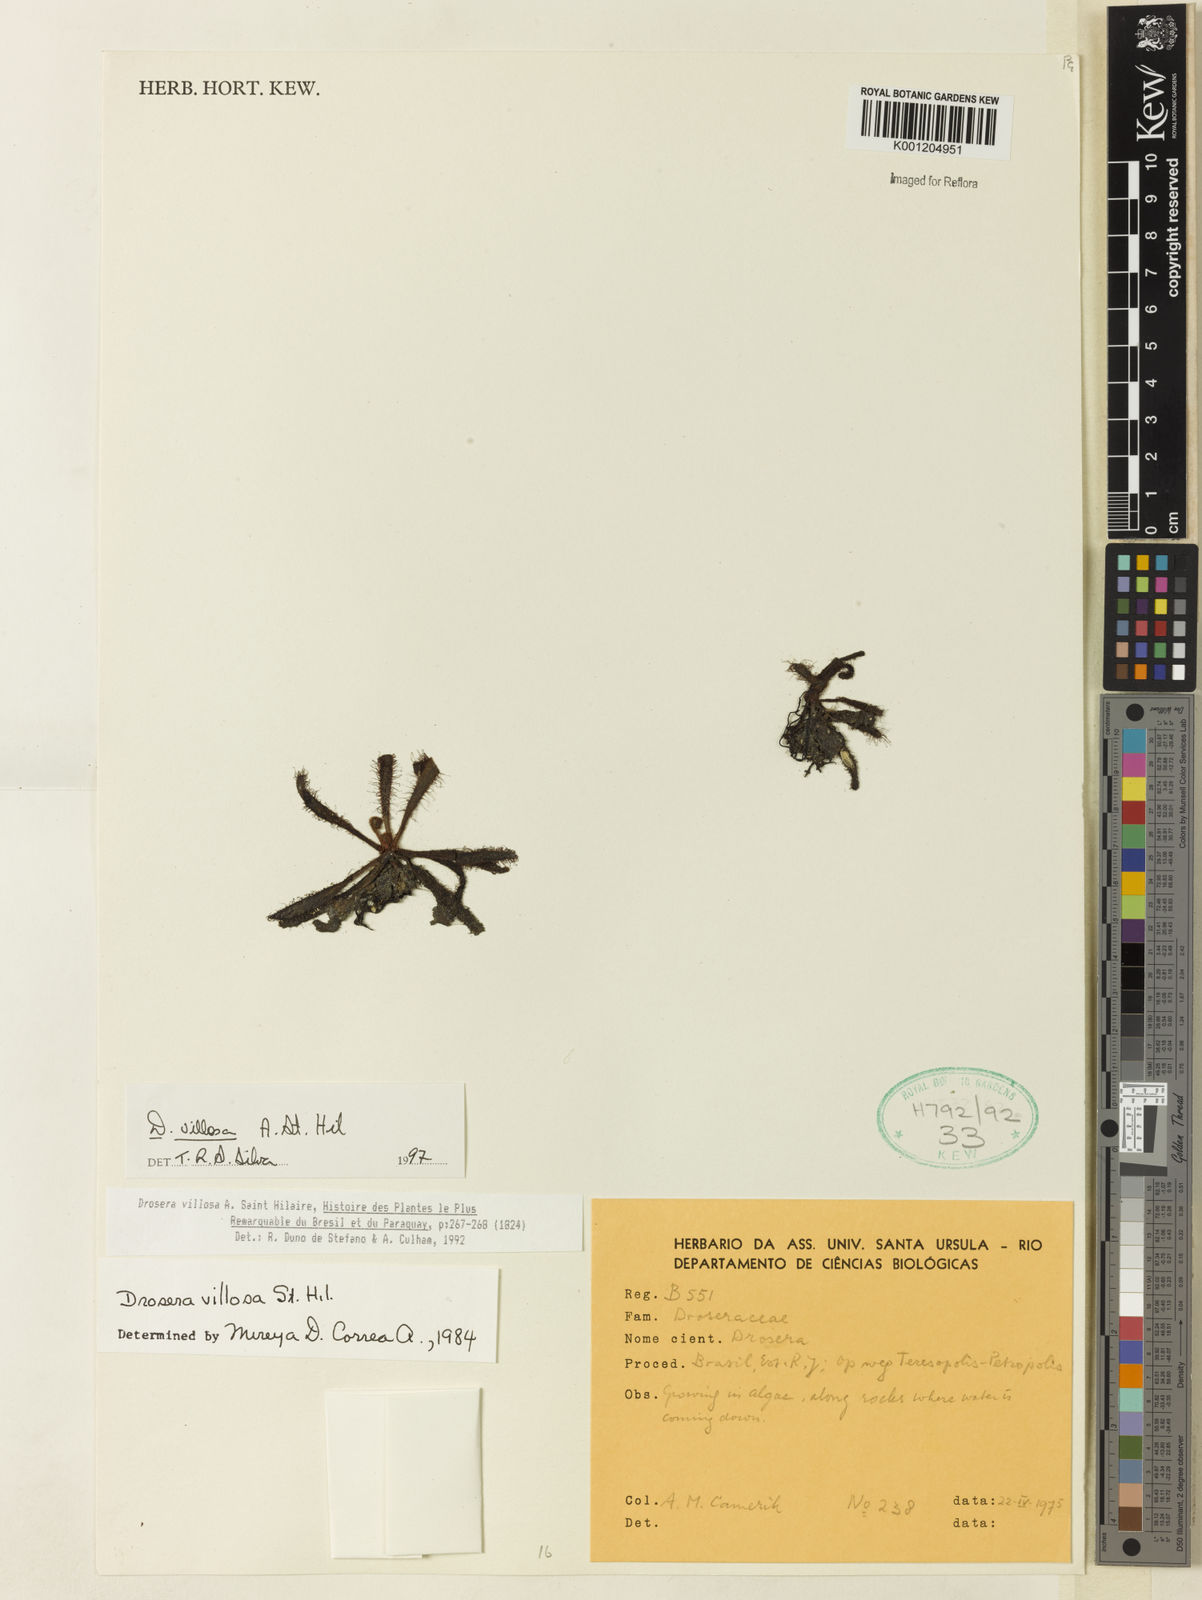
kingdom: Plantae
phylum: Tracheophyta
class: Magnoliopsida
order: Caryophyllales
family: Droseraceae
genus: Drosera
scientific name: Drosera villosa
